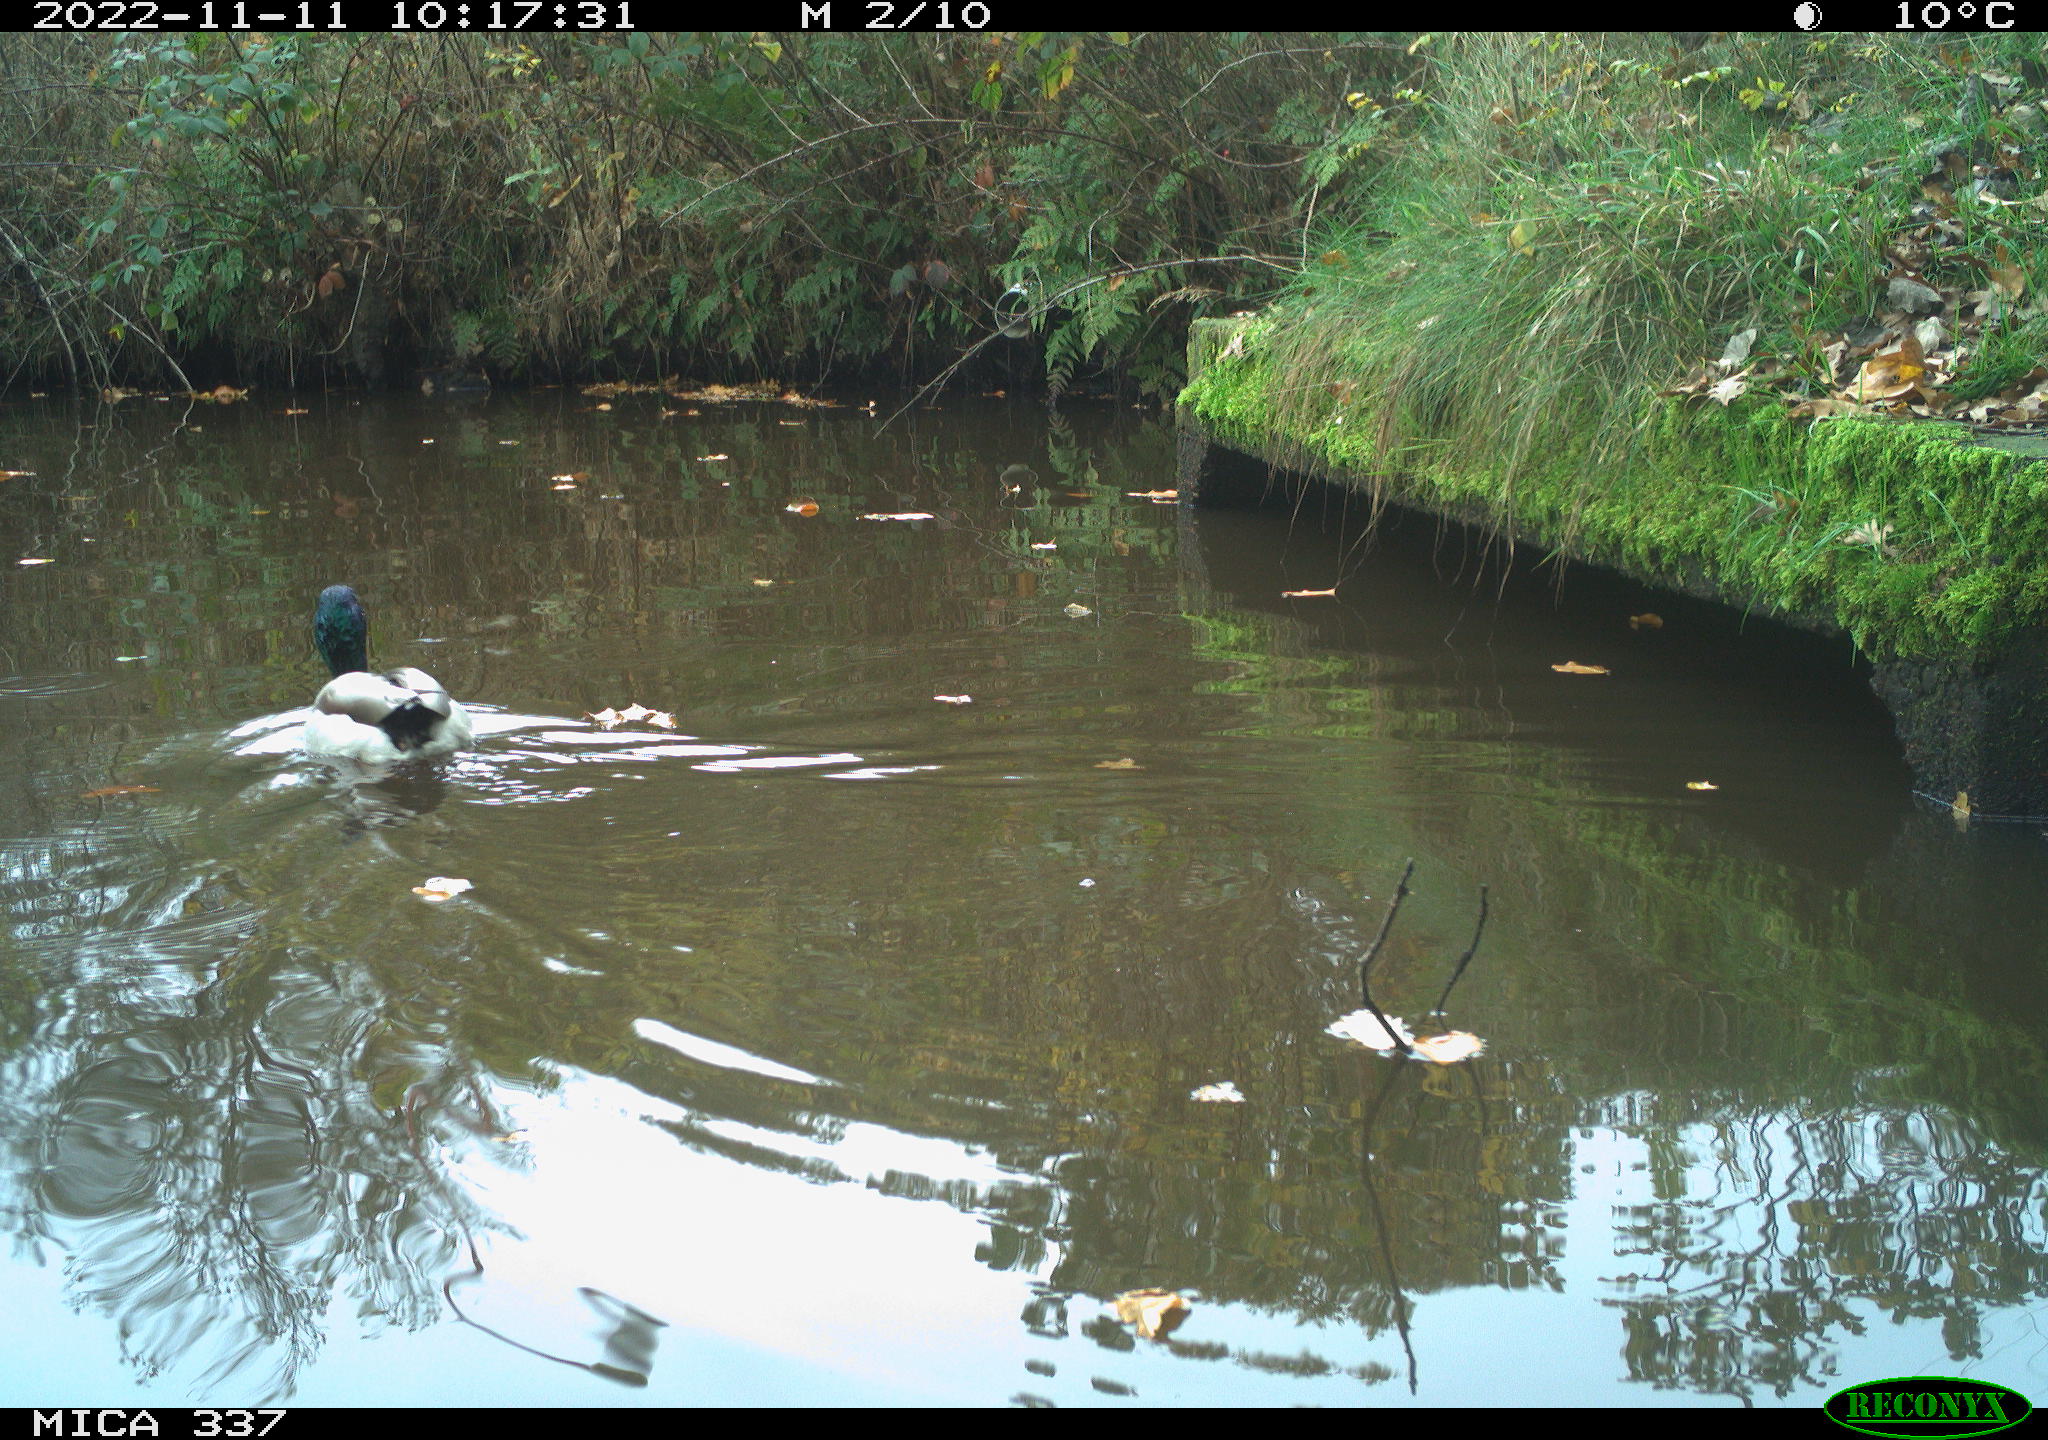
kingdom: Animalia
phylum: Chordata
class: Aves
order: Anseriformes
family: Anatidae
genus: Anas
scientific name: Anas platyrhynchos
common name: Mallard
